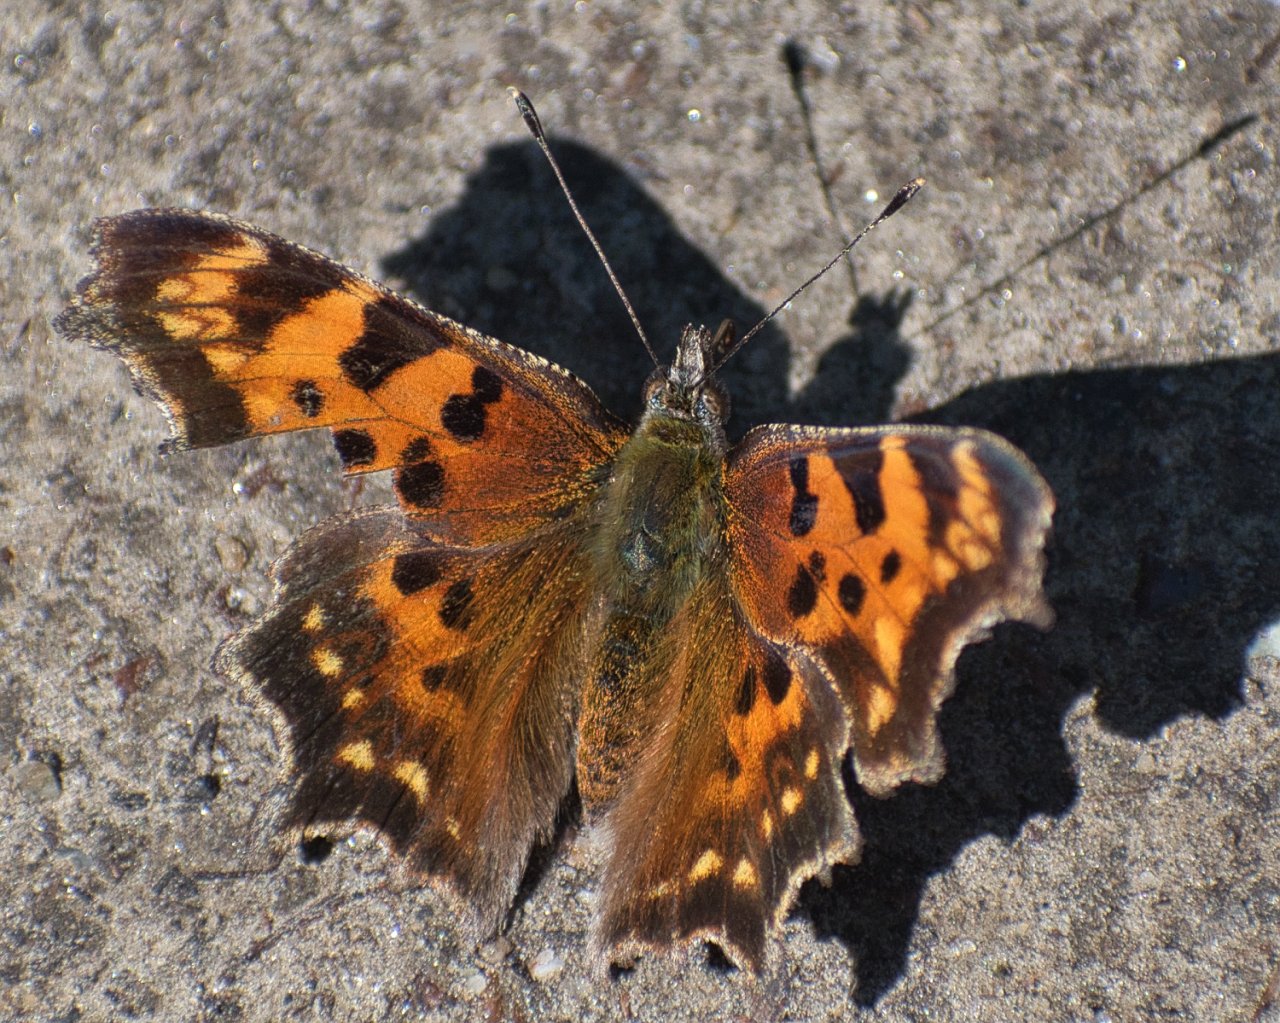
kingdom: Animalia
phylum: Arthropoda
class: Insecta
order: Lepidoptera
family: Nymphalidae
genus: Polygonia
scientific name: Polygonia faunus
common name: Green Comma
